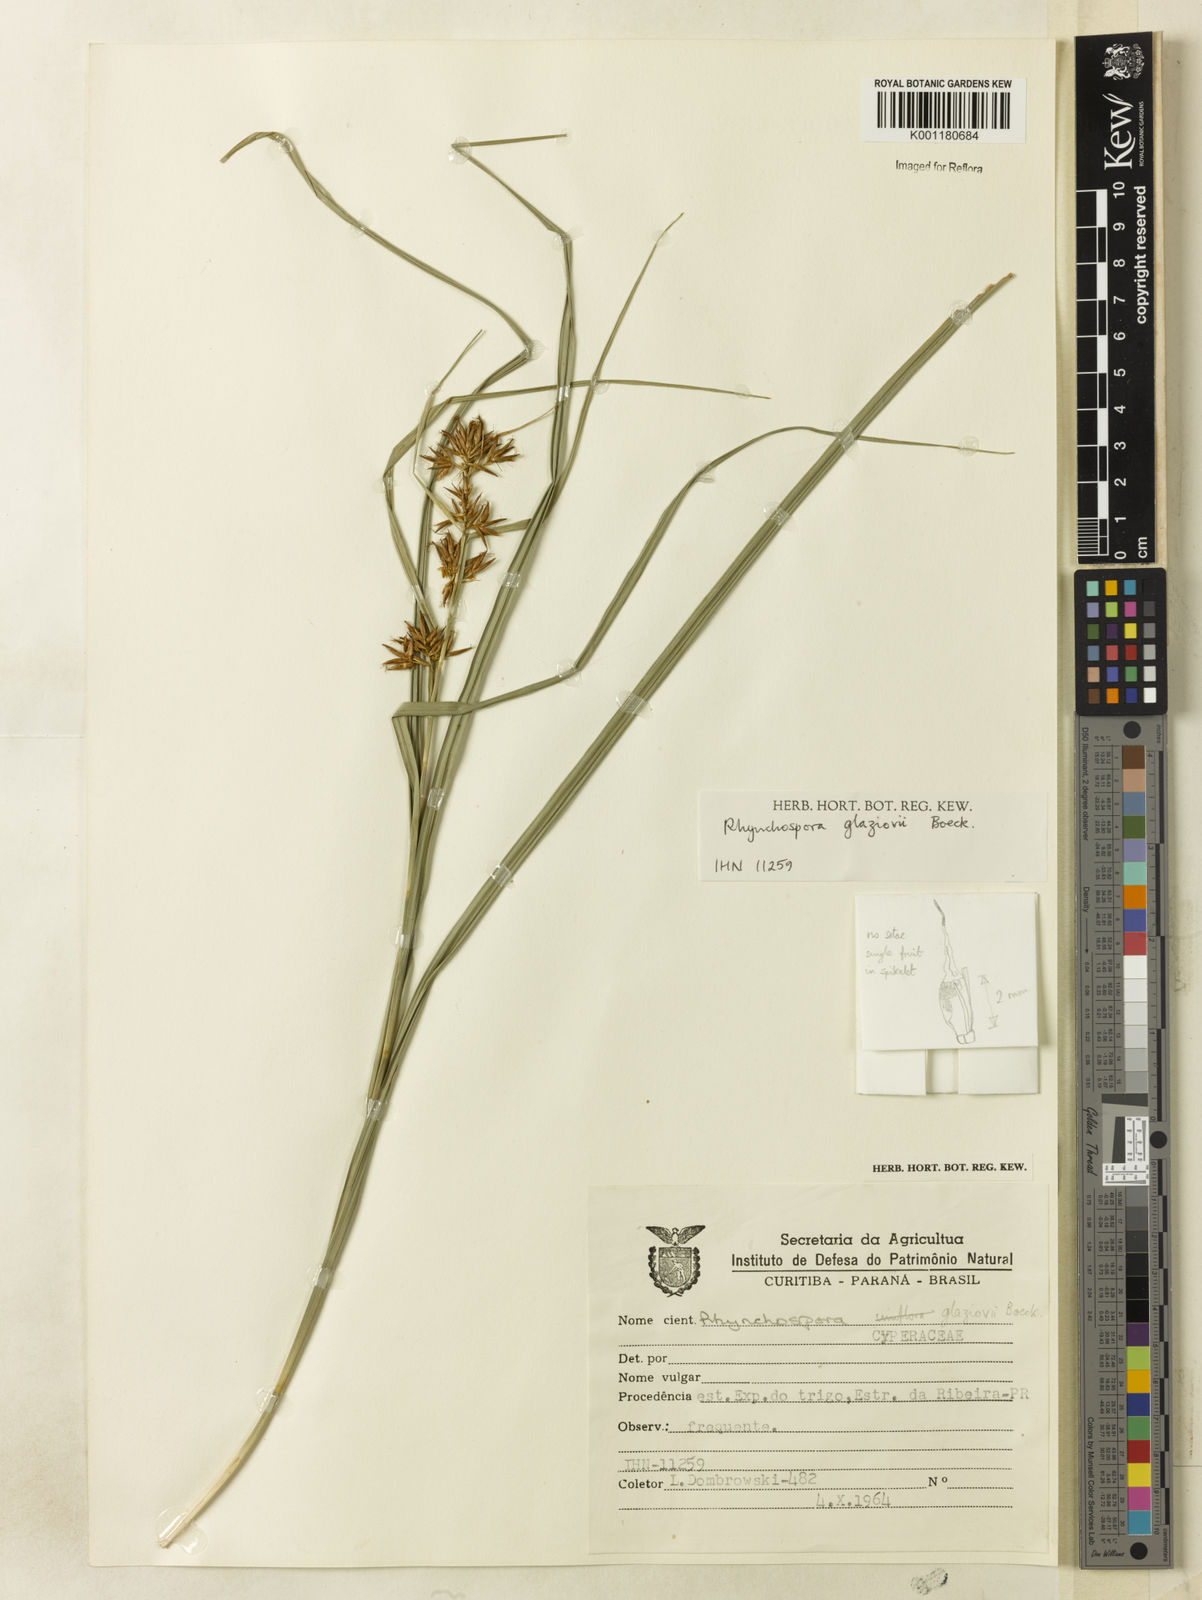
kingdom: Plantae
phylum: Tracheophyta
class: Liliopsida
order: Poales
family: Cyperaceae
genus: Rhynchospora
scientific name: Rhynchospora glaziovii
